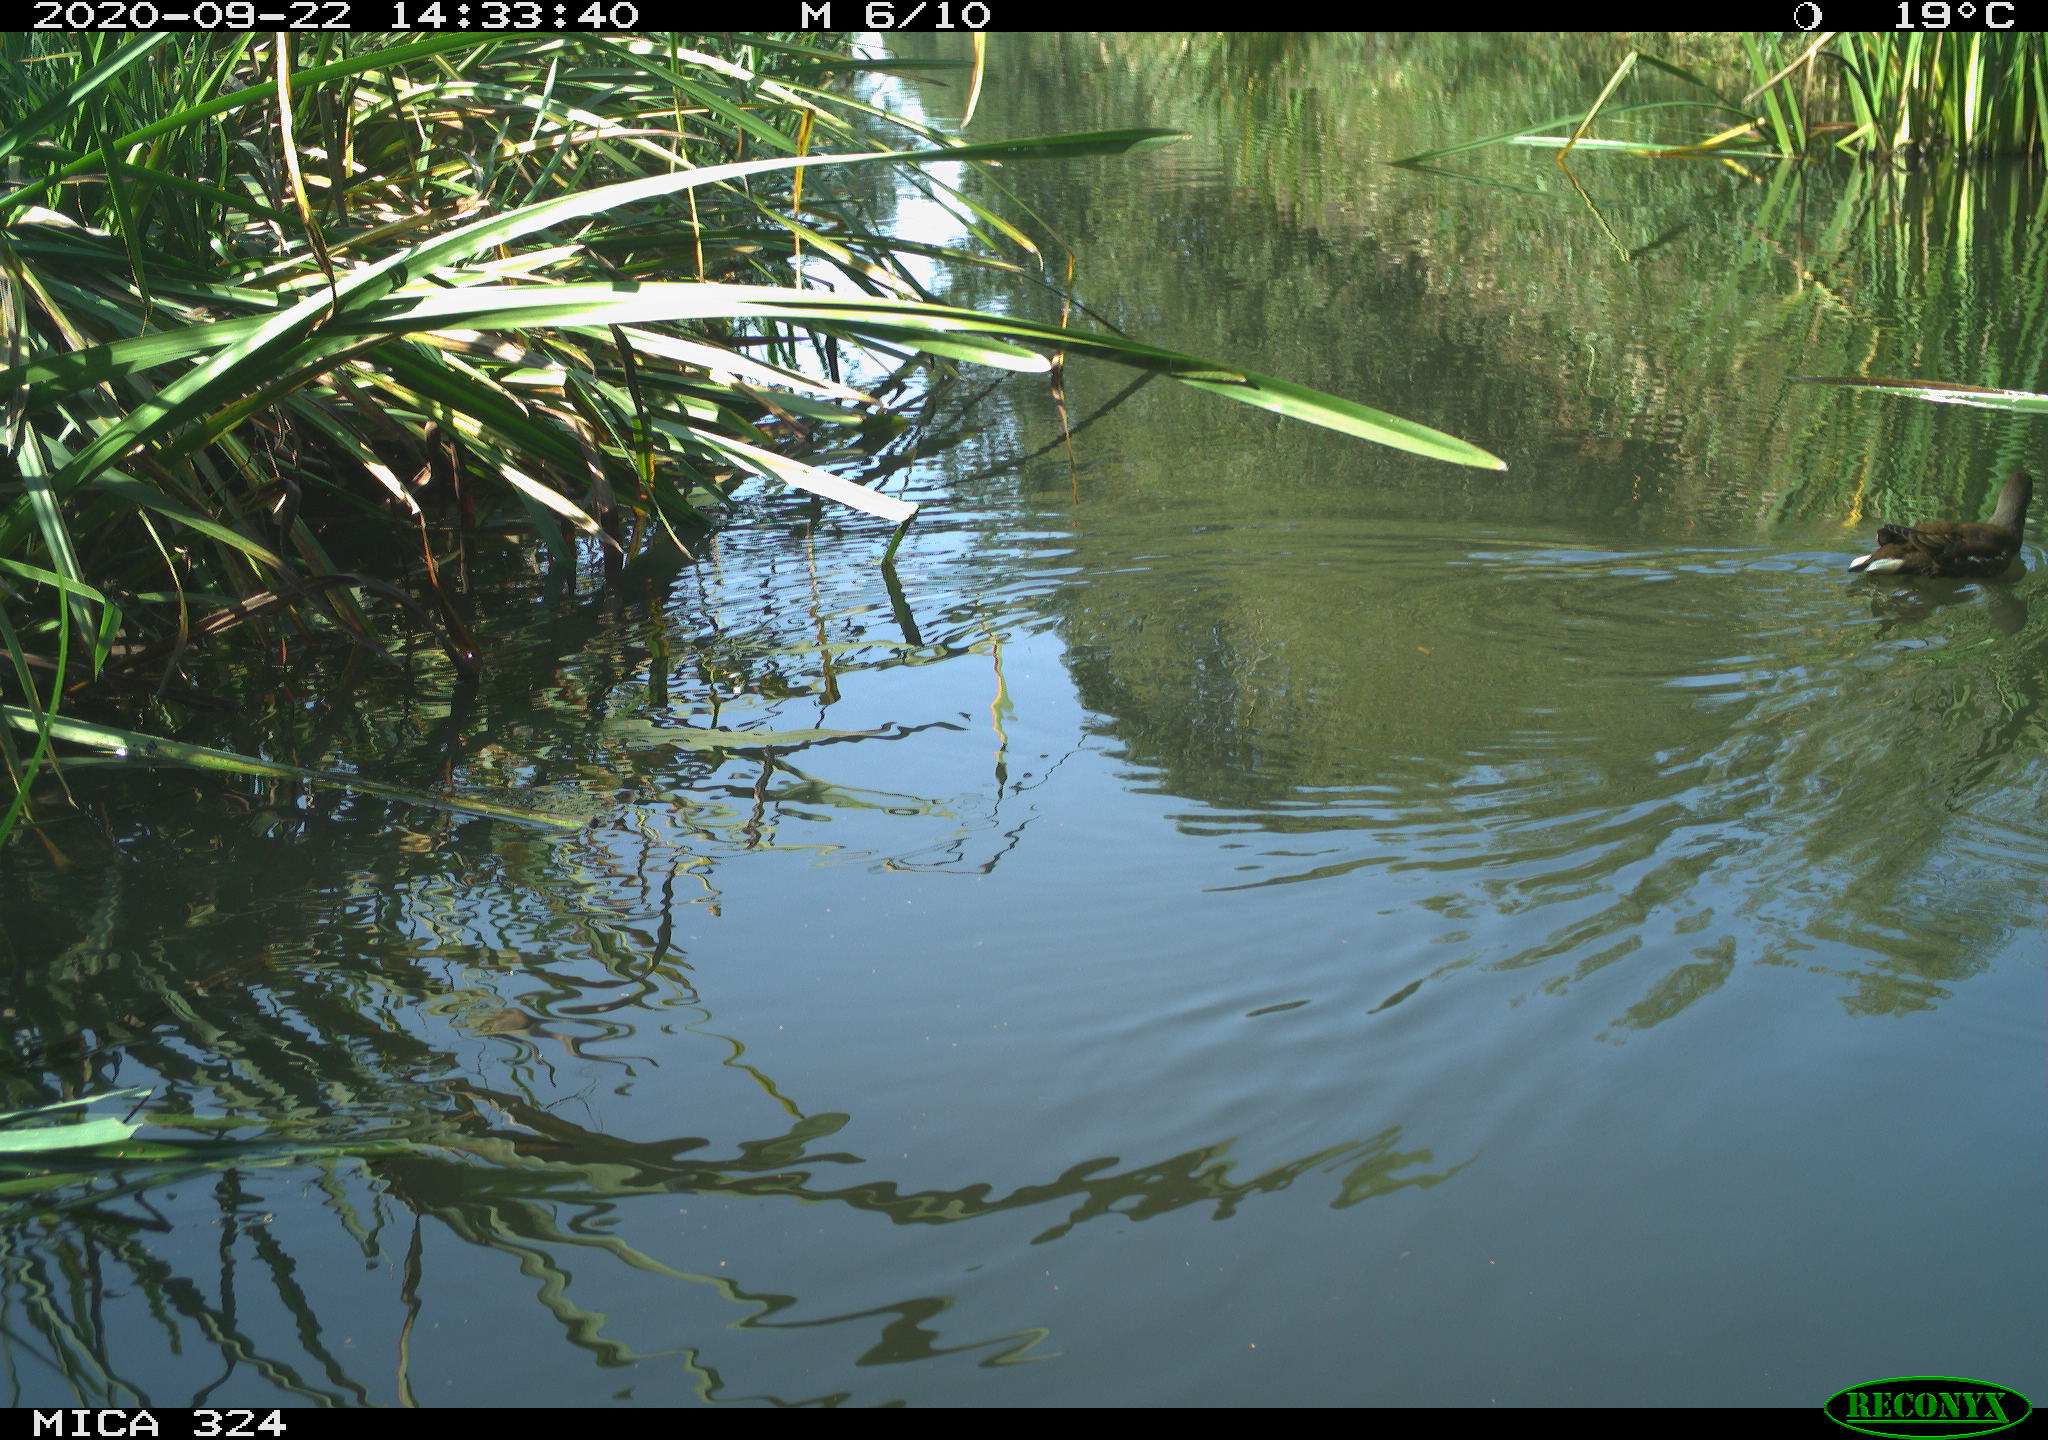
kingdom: Animalia
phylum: Chordata
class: Aves
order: Gruiformes
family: Rallidae
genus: Gallinula
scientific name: Gallinula chloropus
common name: Common moorhen
